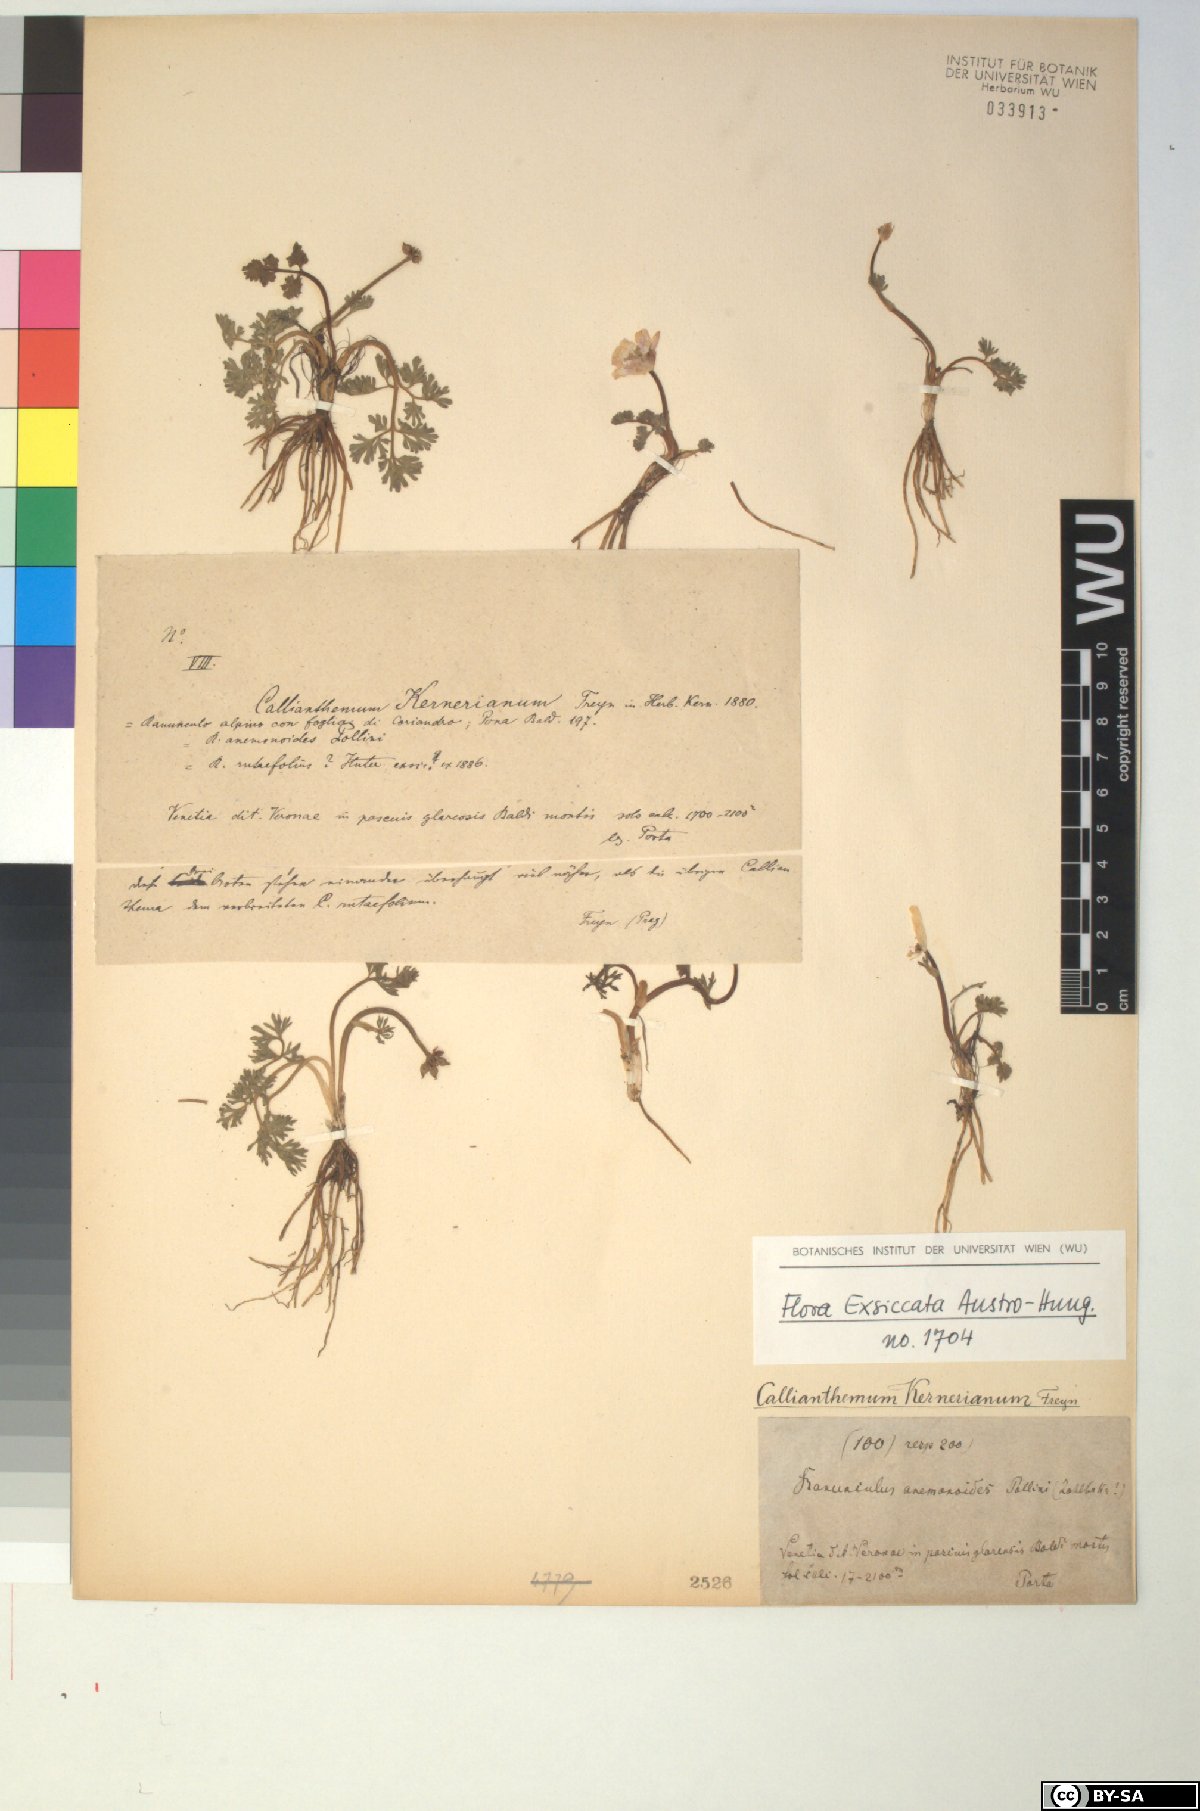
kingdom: Plantae
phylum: Tracheophyta
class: Magnoliopsida
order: Ranunculales
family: Ranunculaceae
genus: Callianthemum
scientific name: Callianthemum kernerianum
